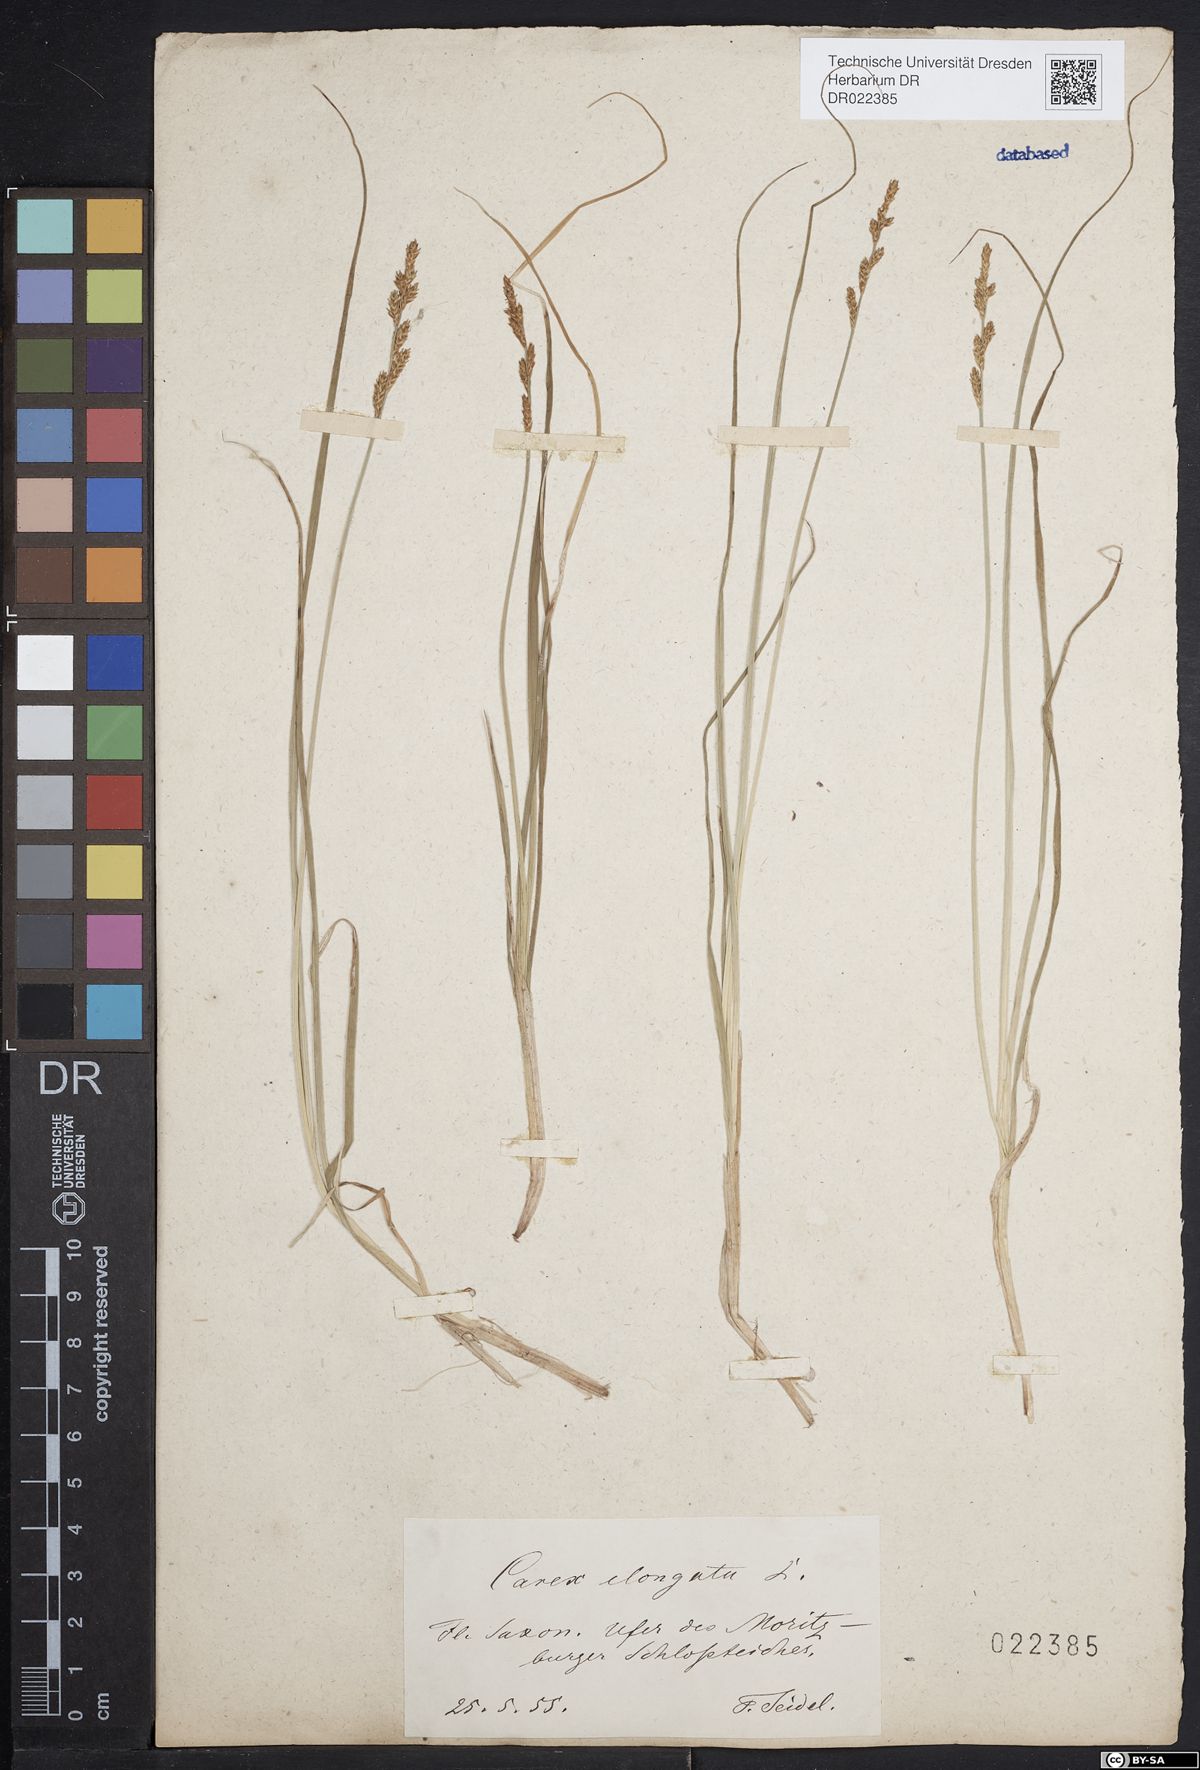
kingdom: Plantae
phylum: Tracheophyta
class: Liliopsida
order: Poales
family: Cyperaceae
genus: Carex
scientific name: Carex elongata
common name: Elongated sedge
